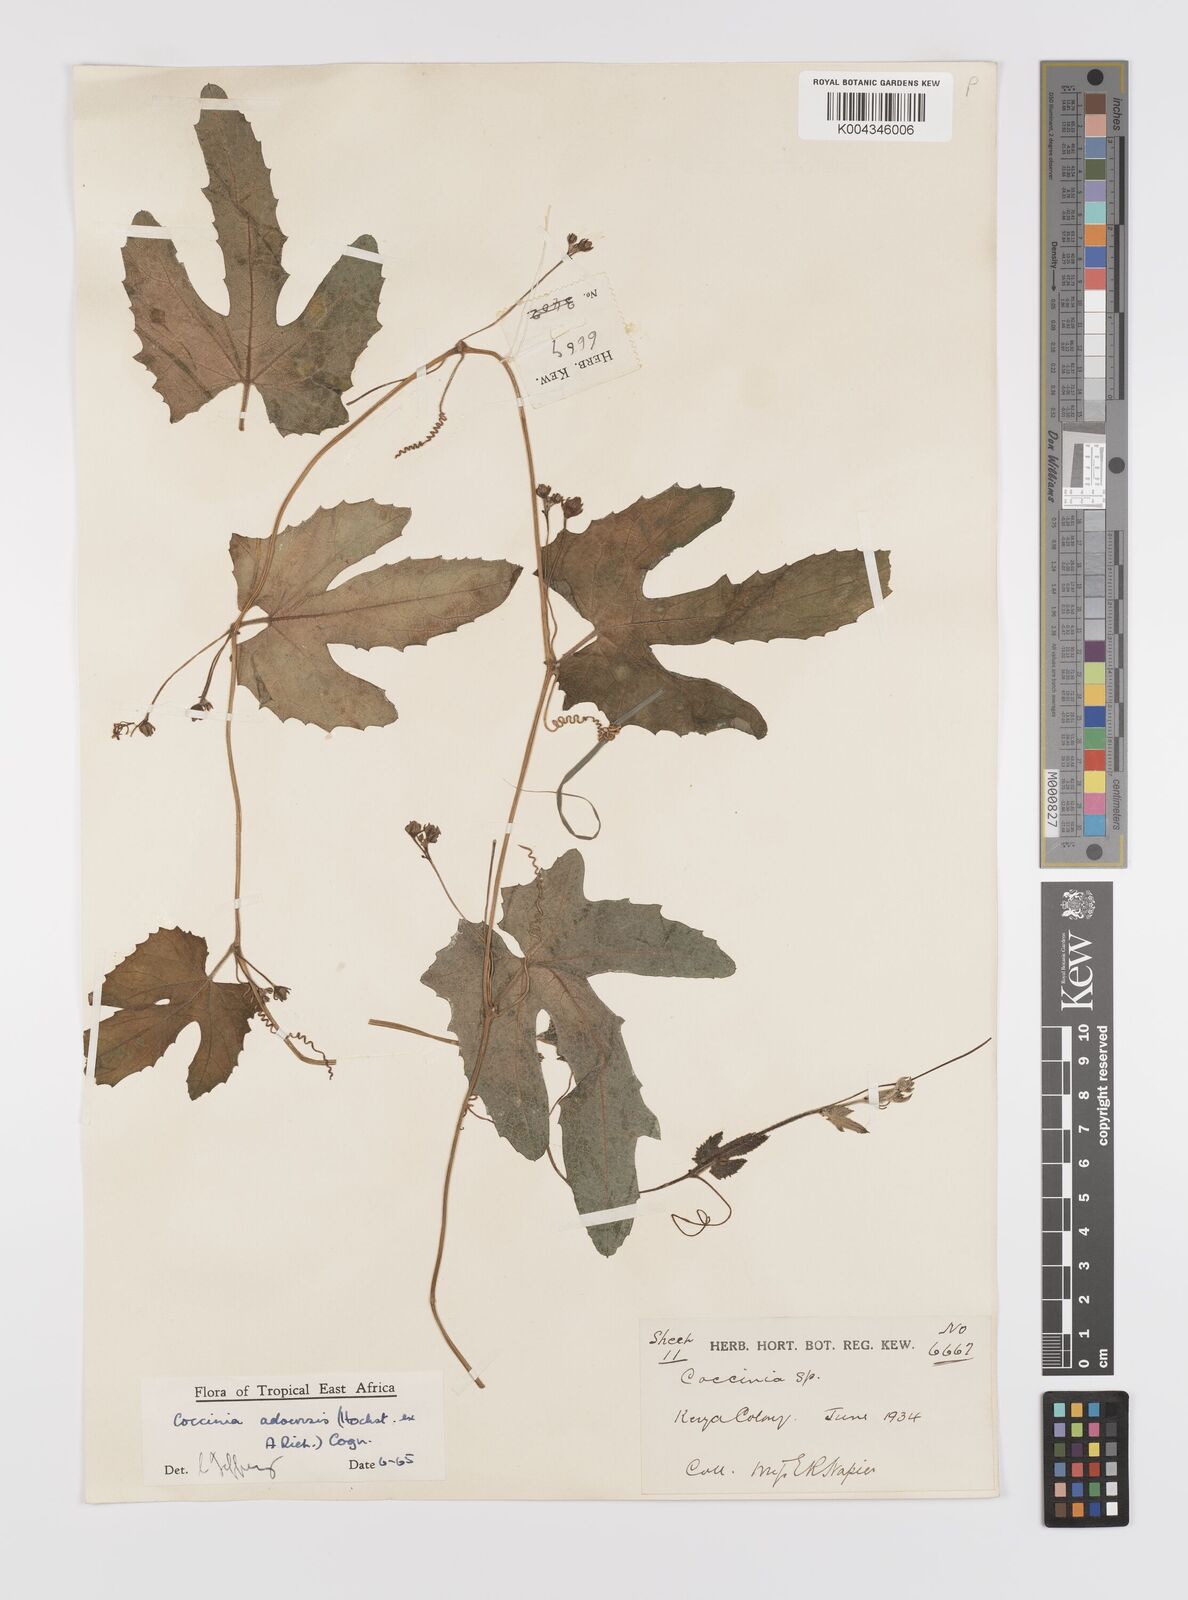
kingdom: Plantae
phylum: Tracheophyta
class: Magnoliopsida
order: Cucurbitales
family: Cucurbitaceae
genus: Coccinia
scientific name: Coccinia adoensis
